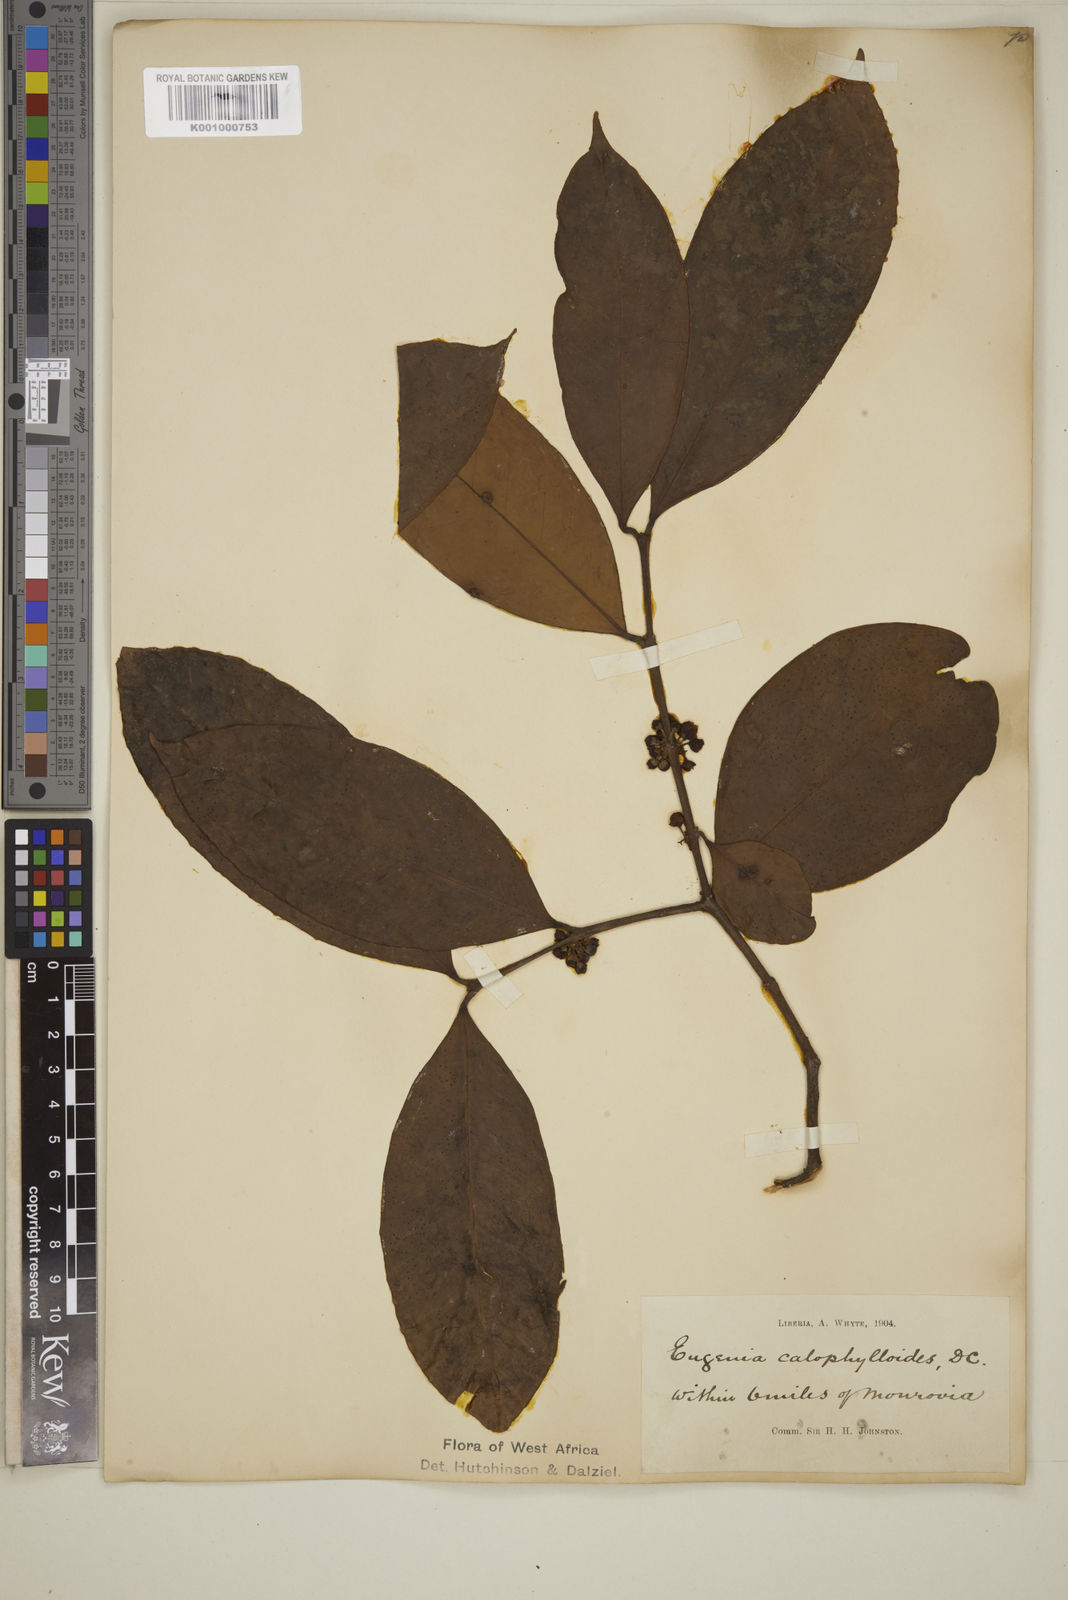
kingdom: Plantae
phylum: Tracheophyta
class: Magnoliopsida
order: Myrtales
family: Myrtaceae
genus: Eugenia
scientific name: Eugenia calophylloides
